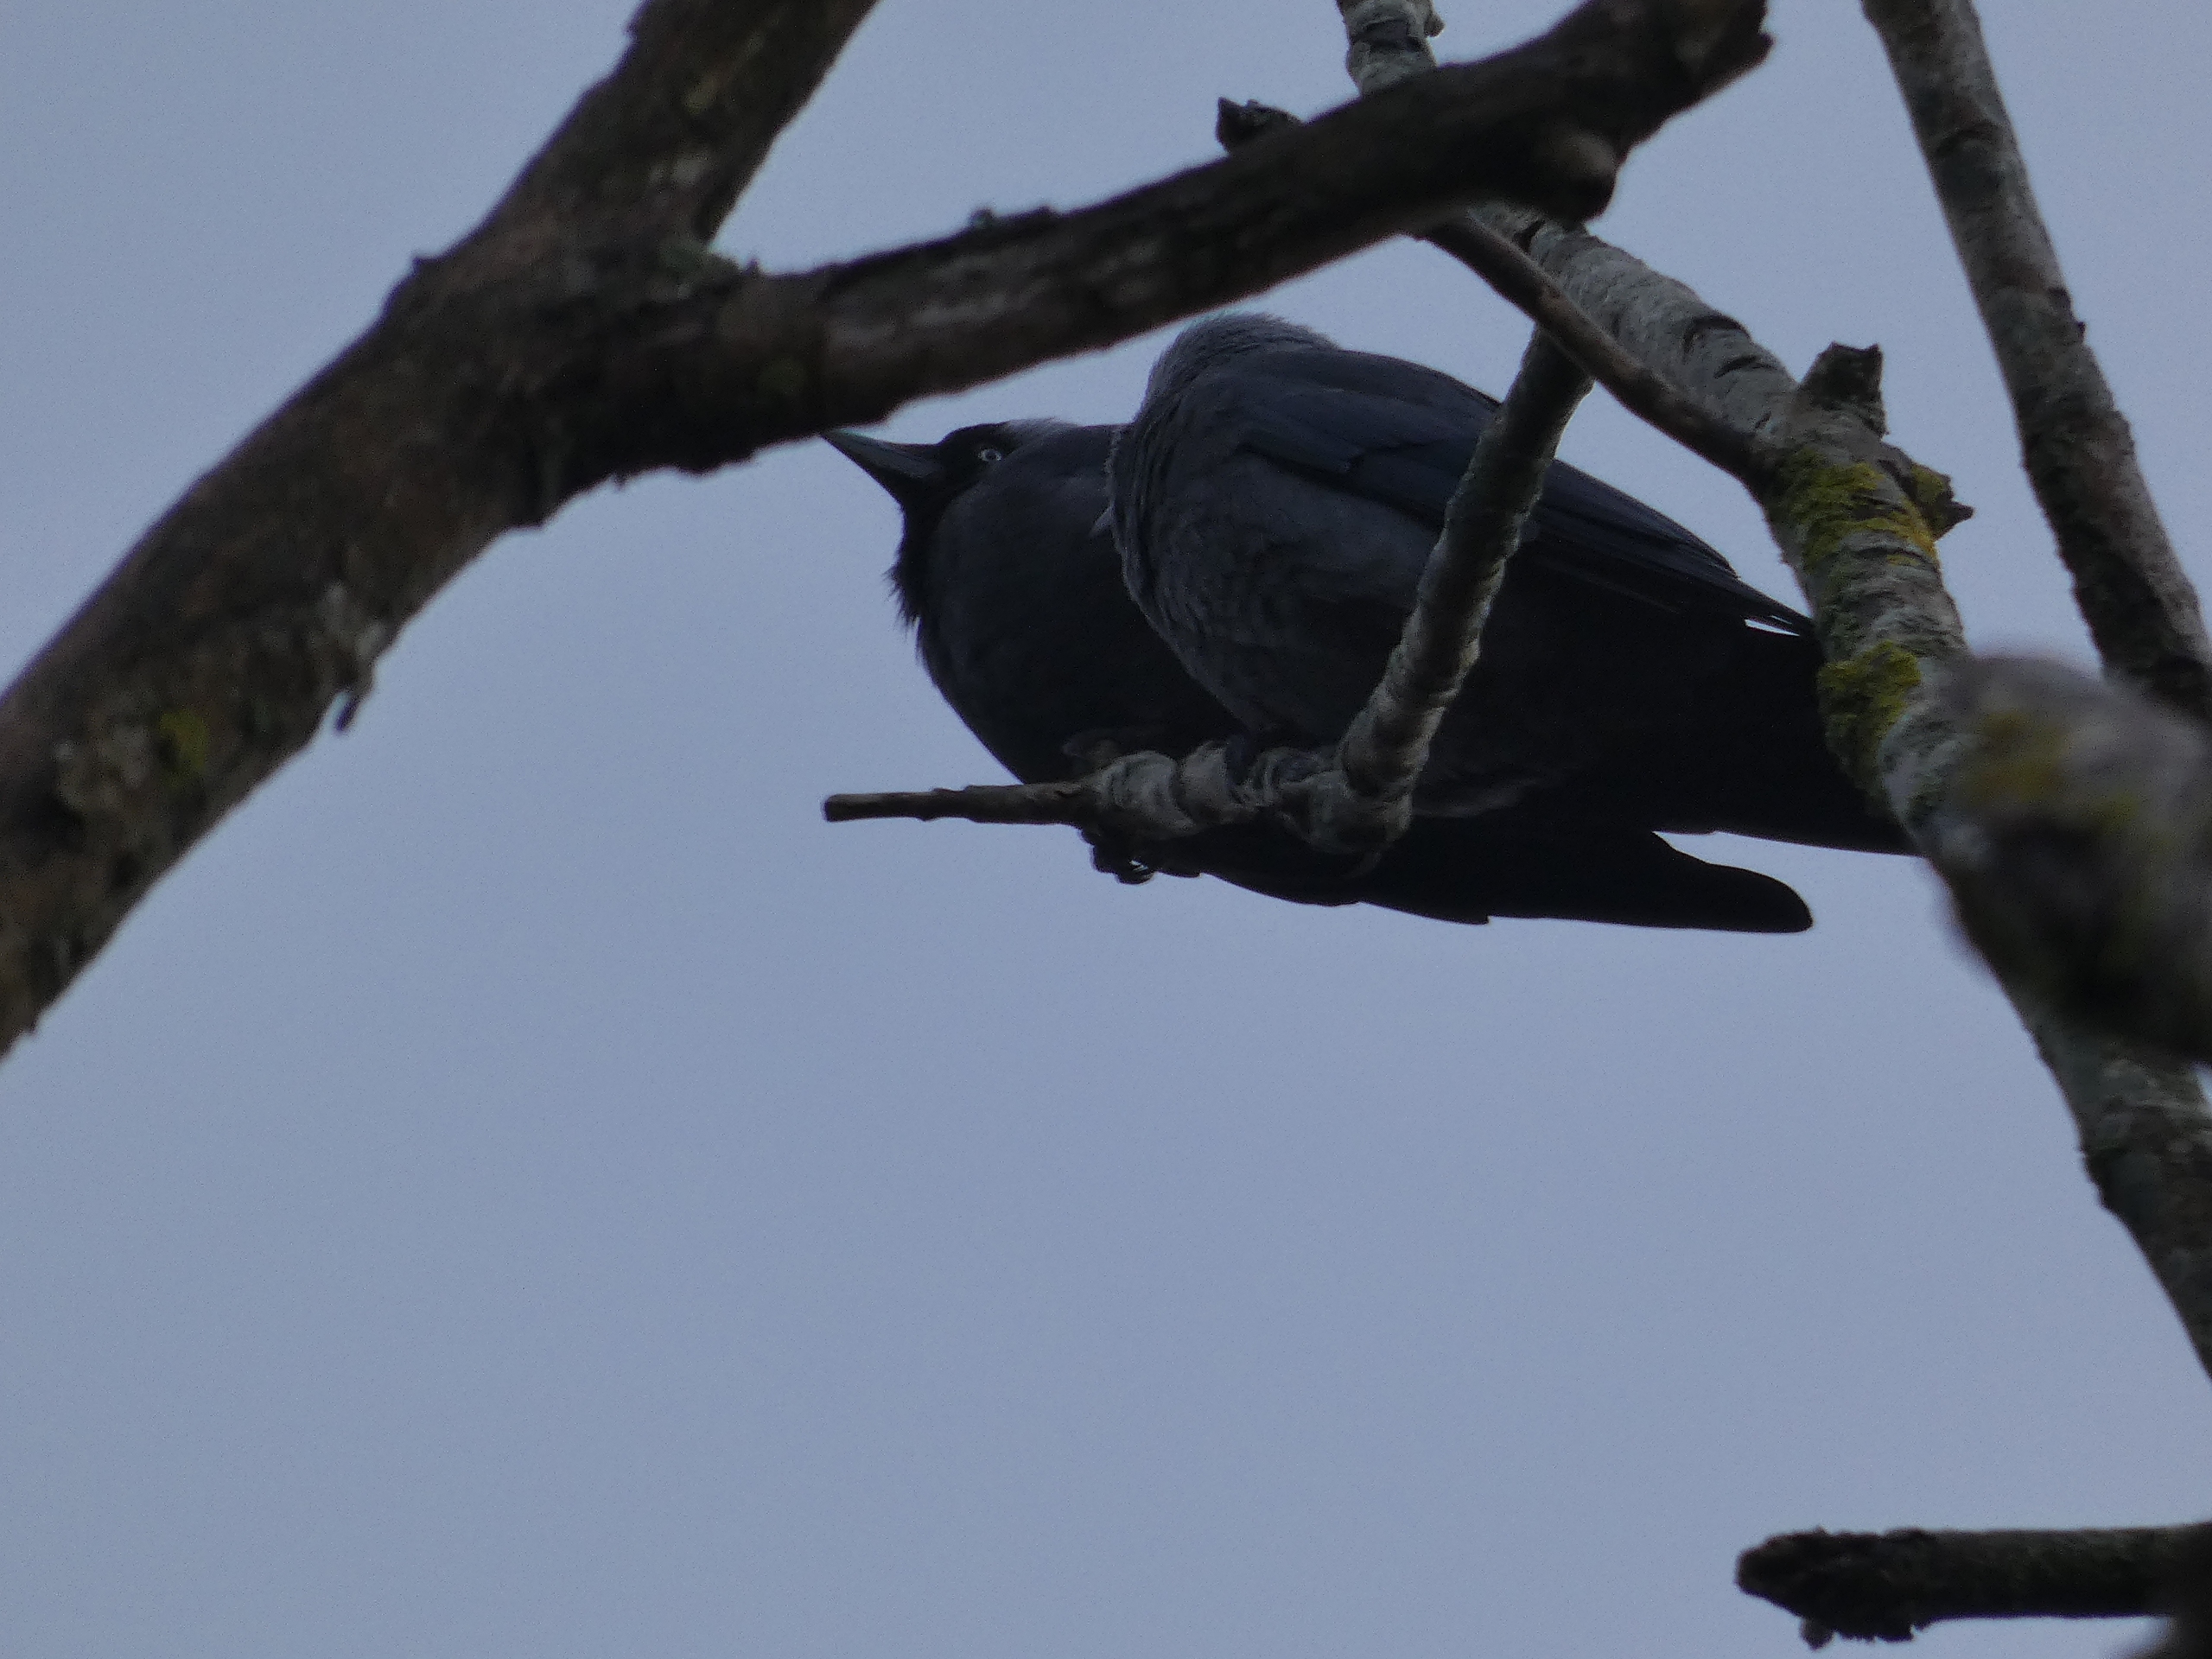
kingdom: Animalia
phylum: Chordata
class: Aves
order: Passeriformes
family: Corvidae
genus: Coloeus
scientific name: Coloeus monedula
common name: Allike
